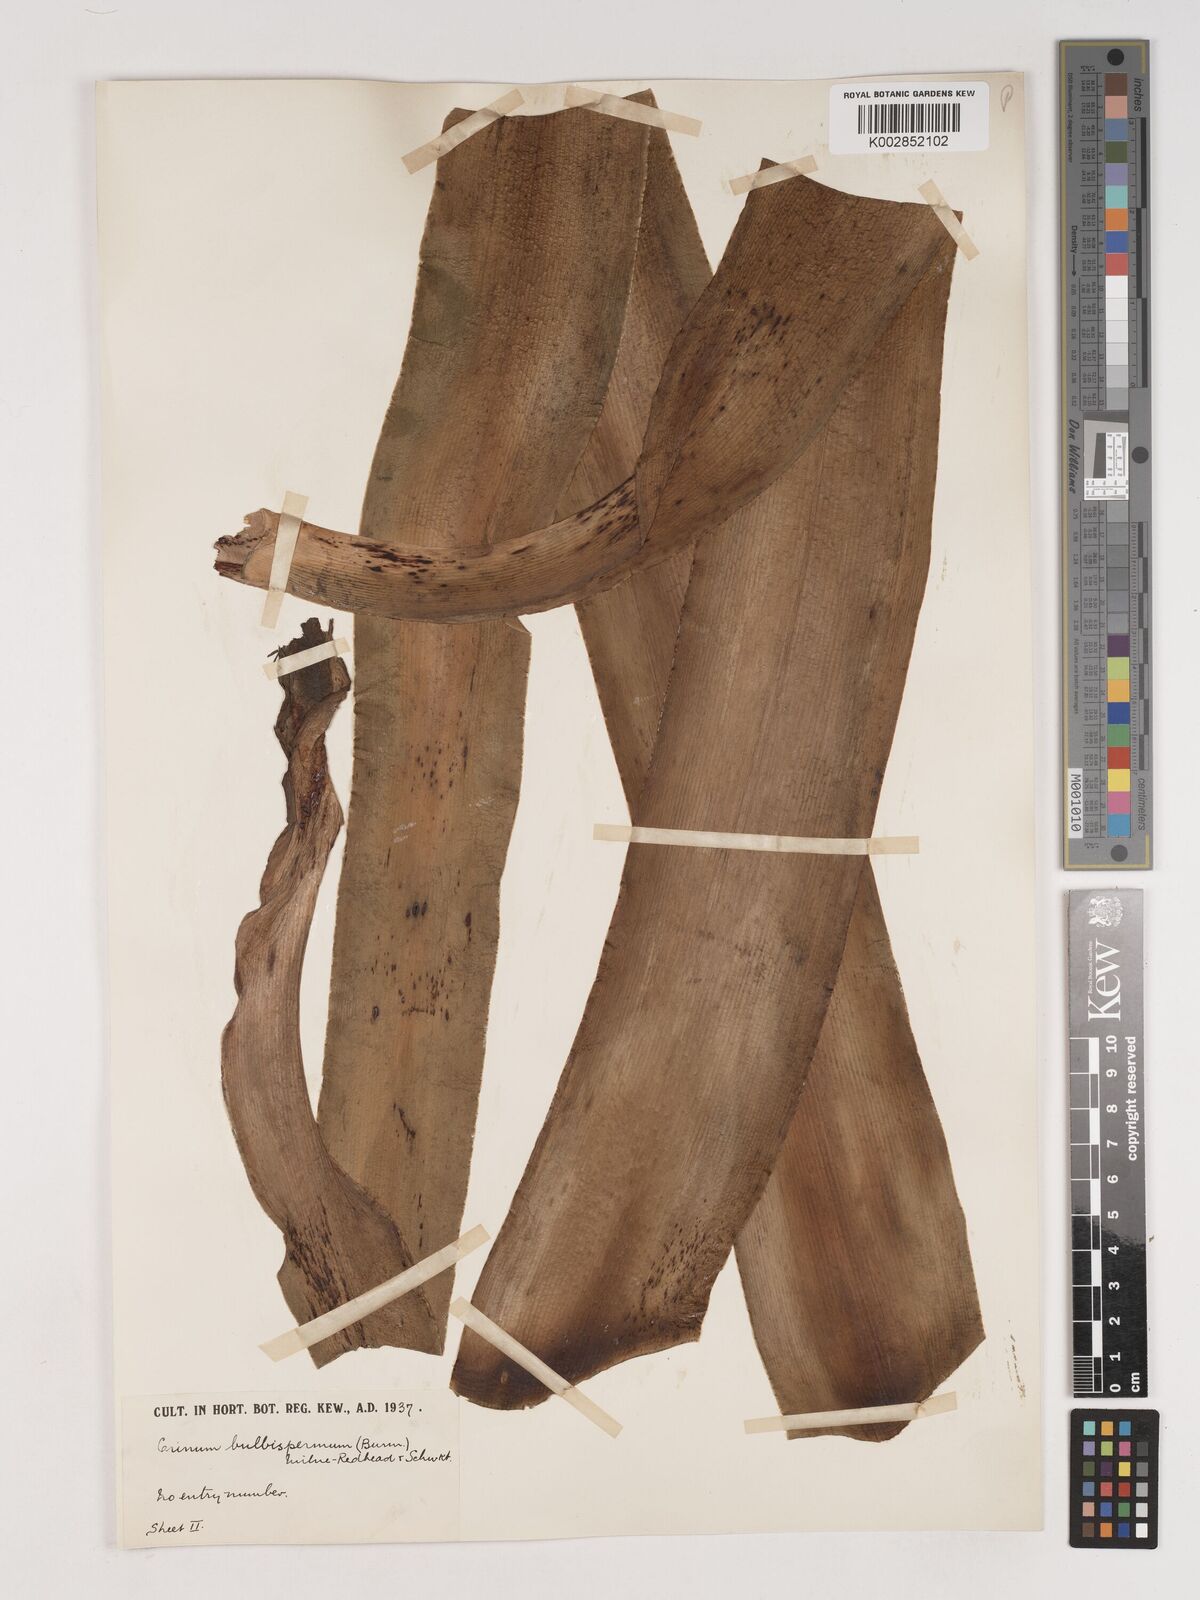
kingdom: Plantae
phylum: Tracheophyta
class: Liliopsida
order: Asparagales
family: Amaryllidaceae
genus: Crinum
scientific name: Crinum bulbispermum
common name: Hardy swamplily
